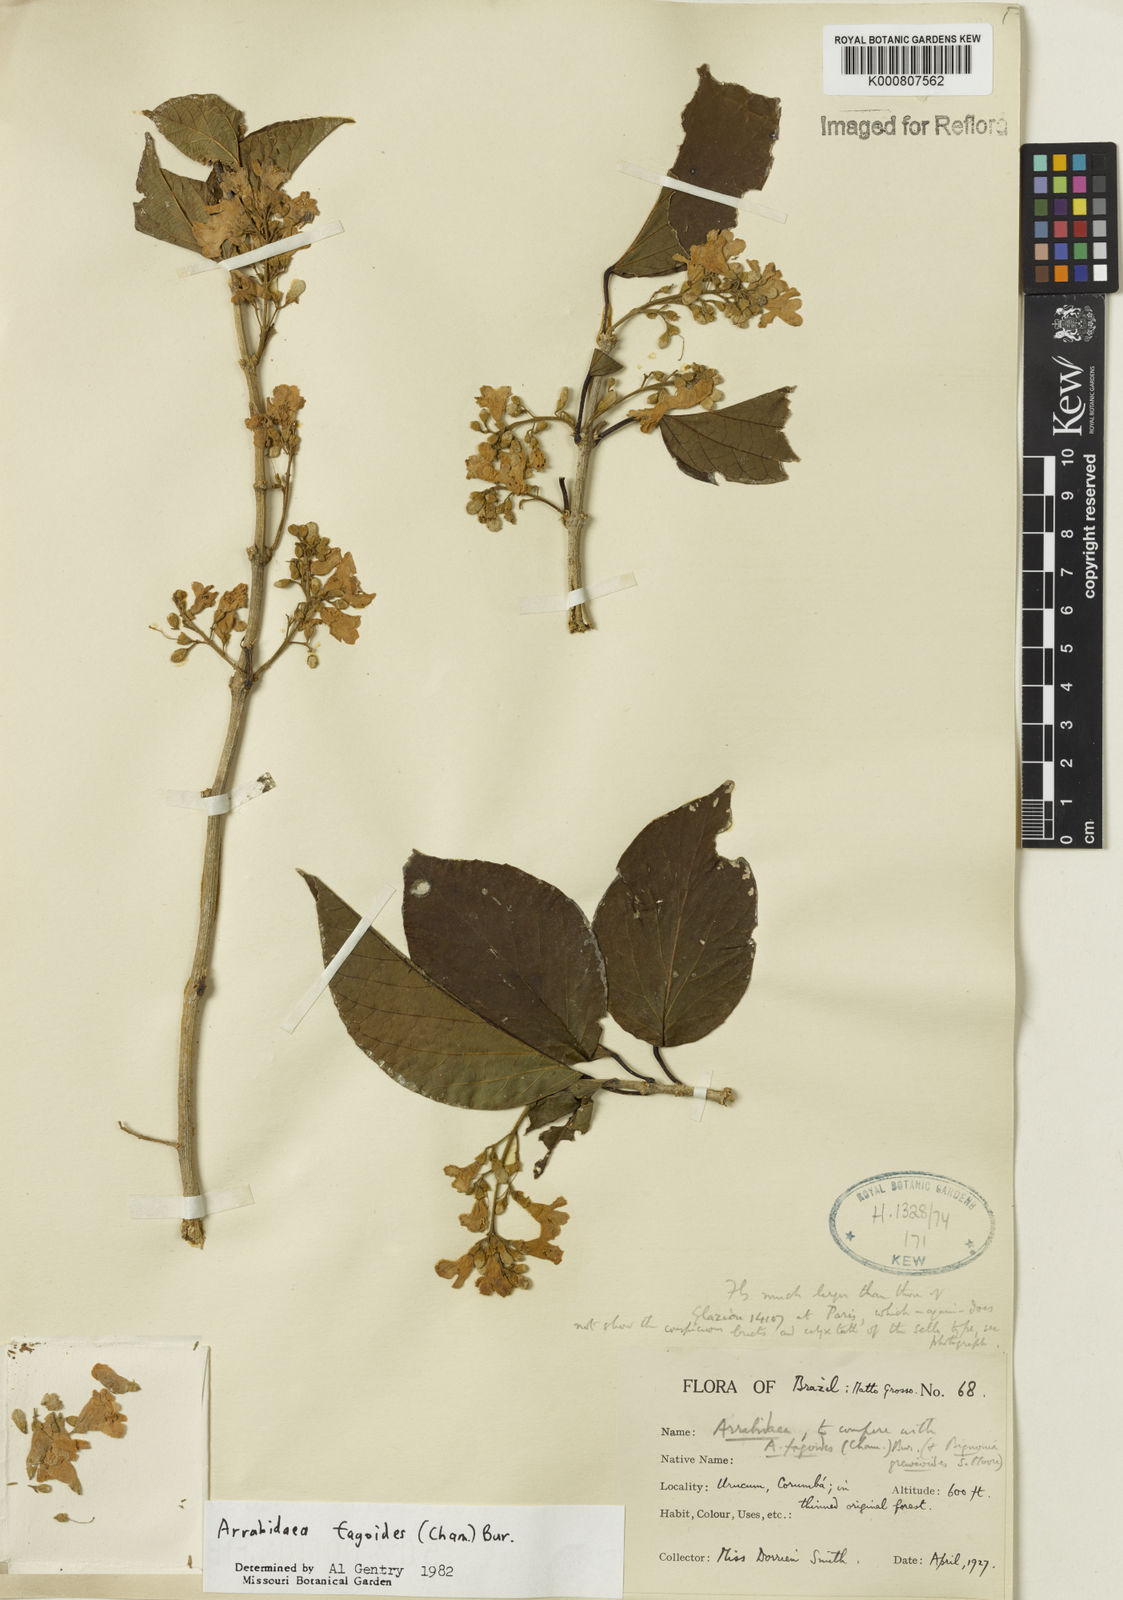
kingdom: Plantae
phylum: Tracheophyta
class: Magnoliopsida
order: Lamiales
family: Bignoniaceae
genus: Fridericia
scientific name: Fridericia fagoides
